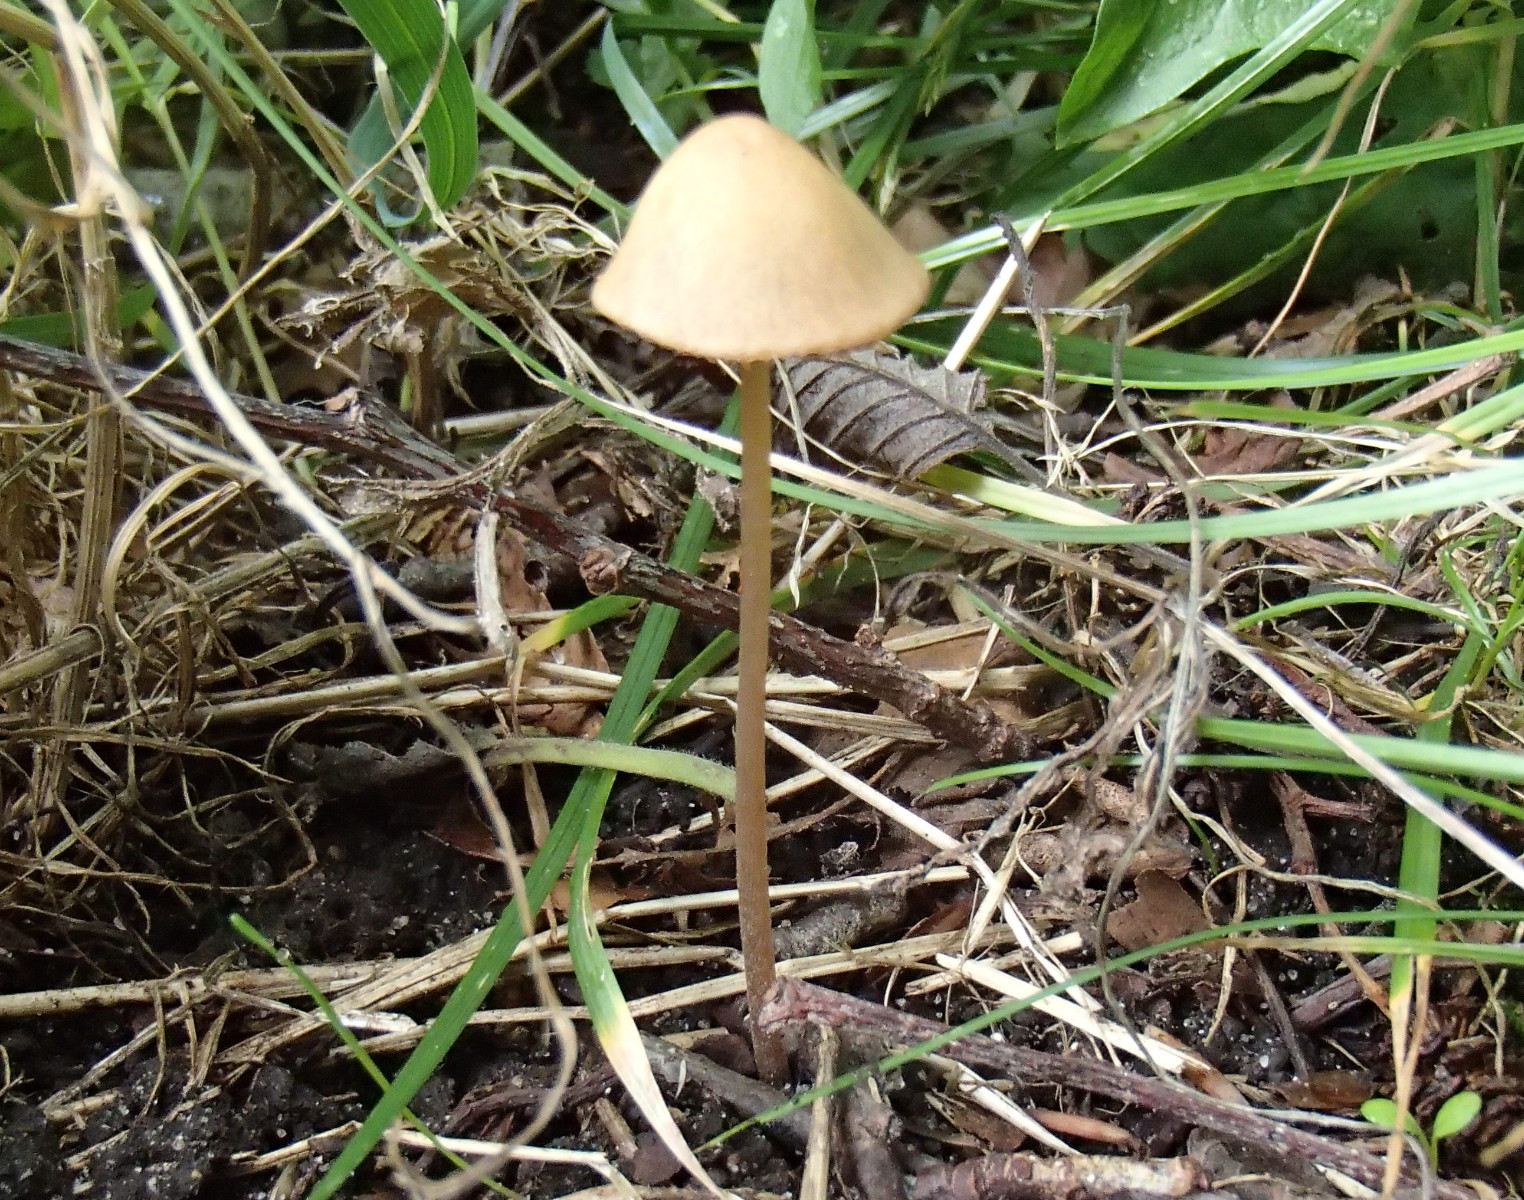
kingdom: Fungi
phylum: Basidiomycota
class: Agaricomycetes
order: Agaricales
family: Bolbitiaceae
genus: Conocybe
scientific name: Conocybe
